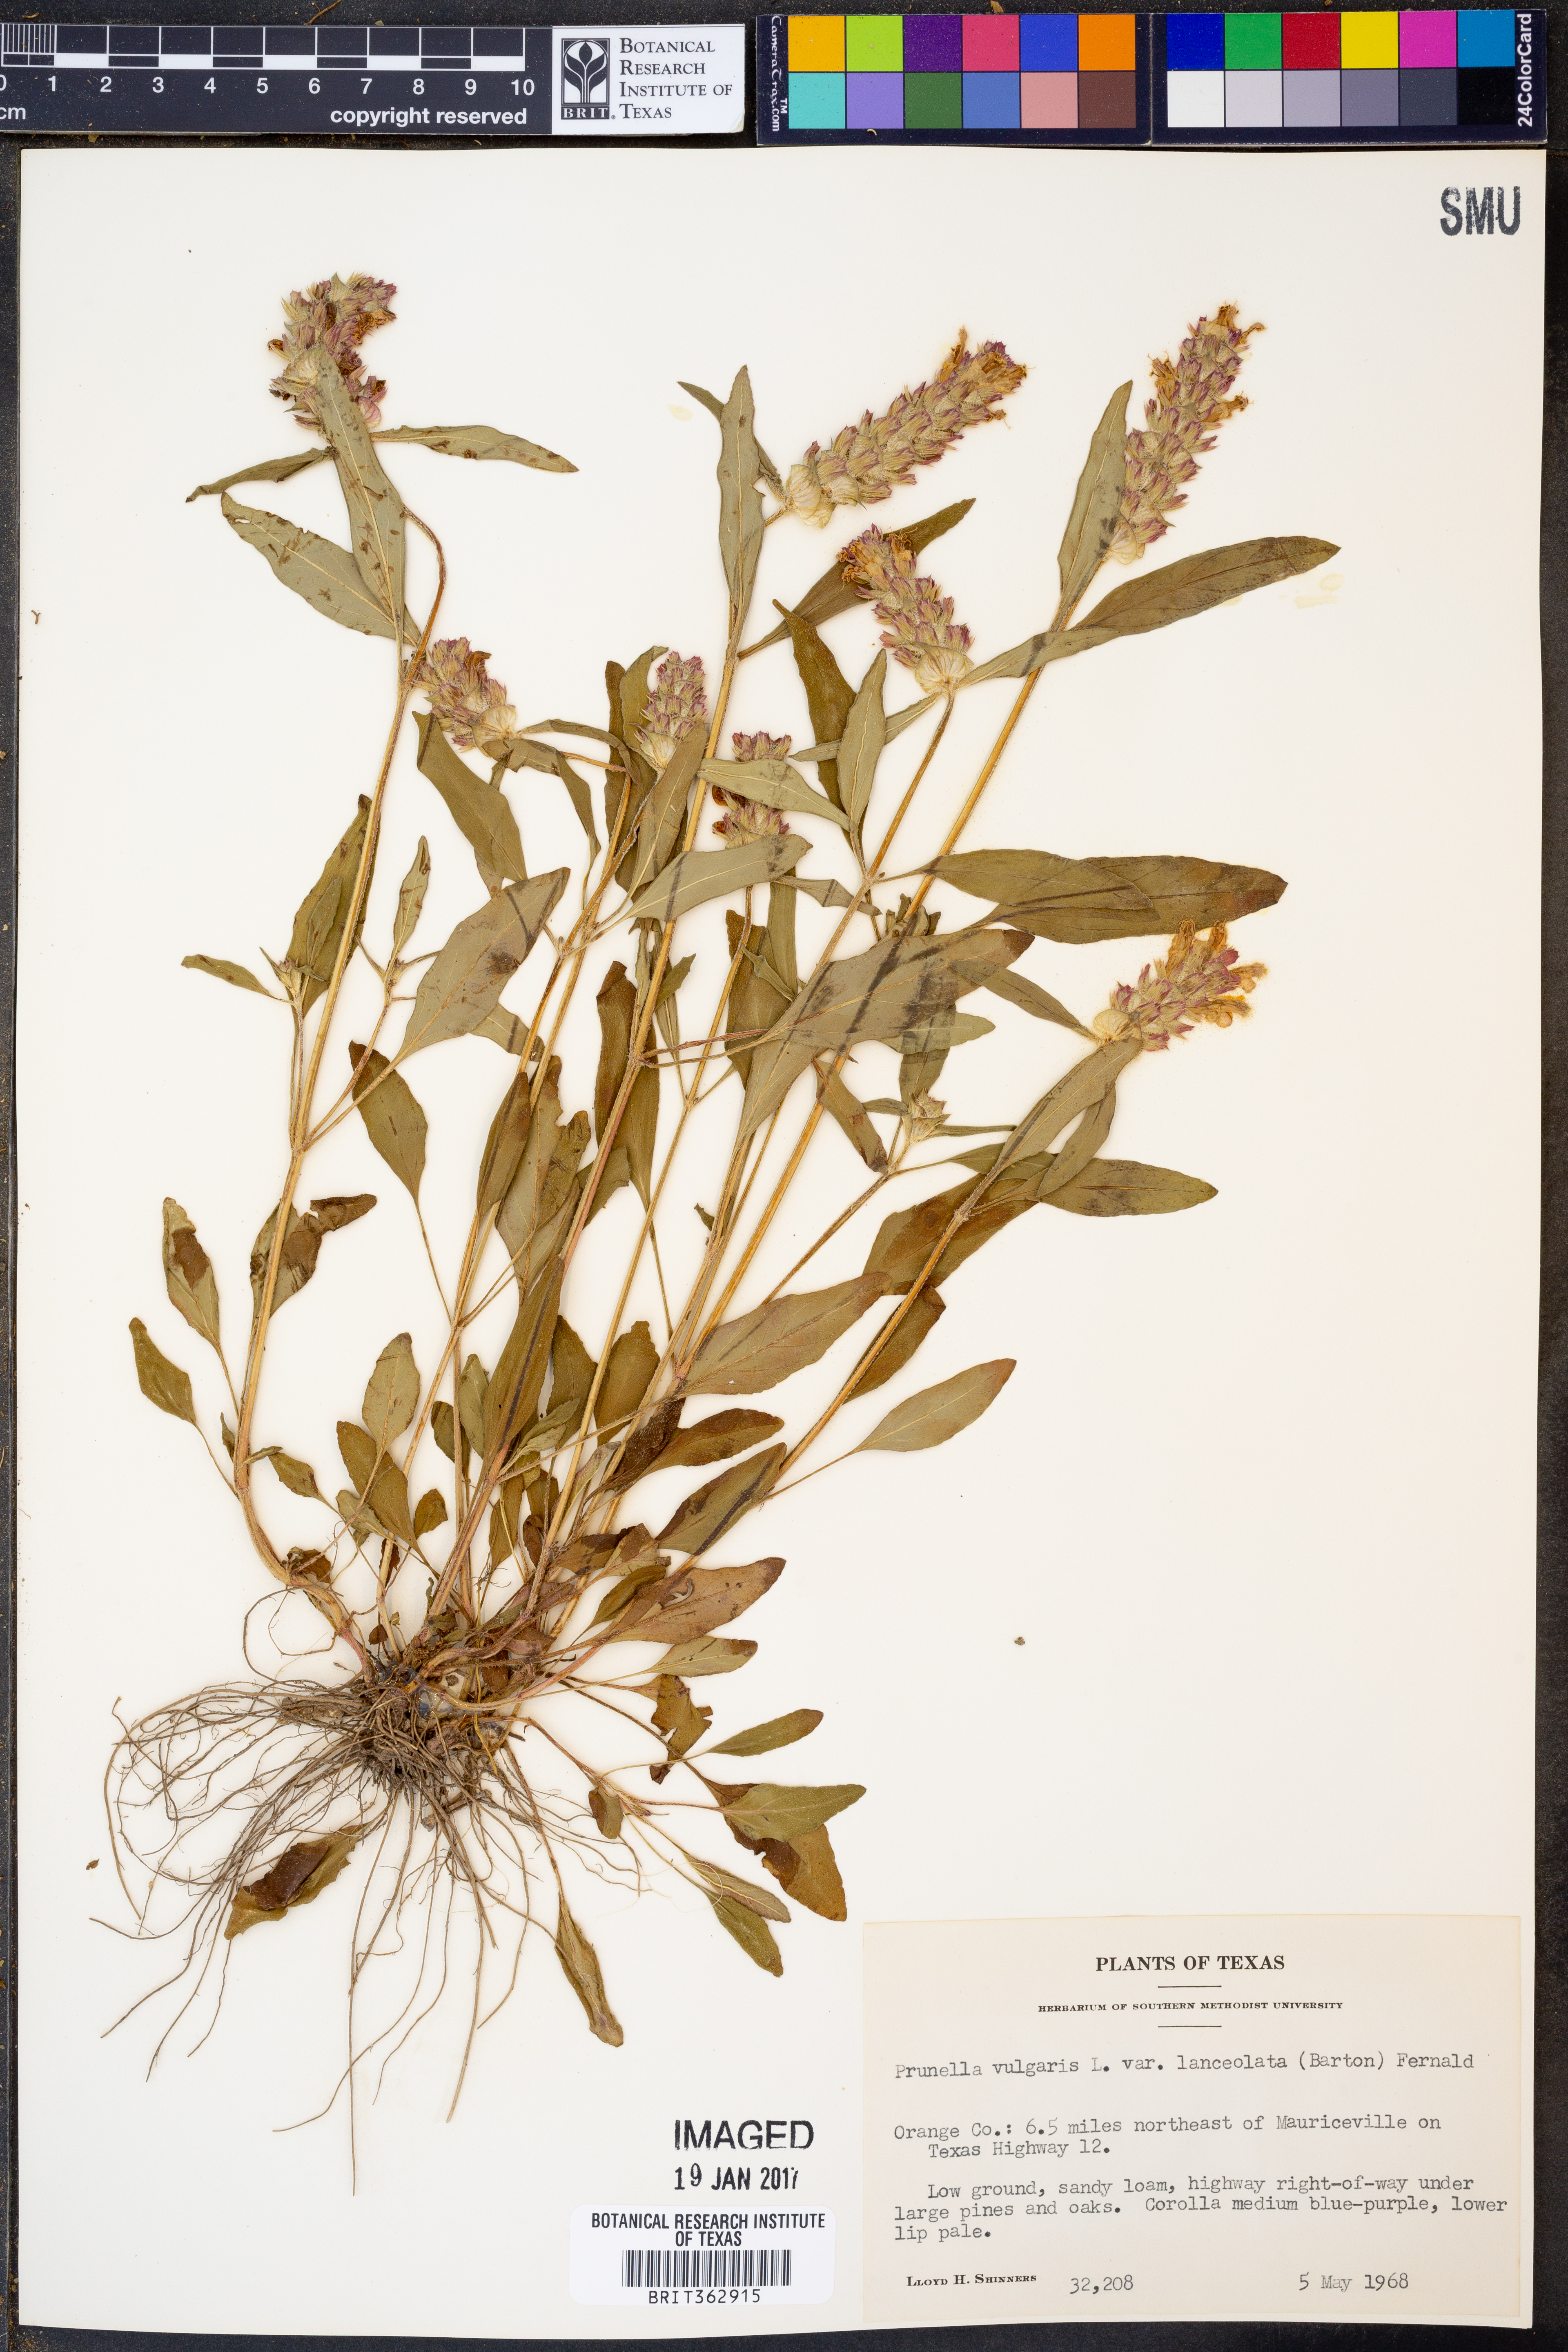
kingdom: Plantae
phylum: Tracheophyta
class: Magnoliopsida
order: Lamiales
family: Lamiaceae
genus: Prunella
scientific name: Prunella vulgaris
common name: Heal-all
